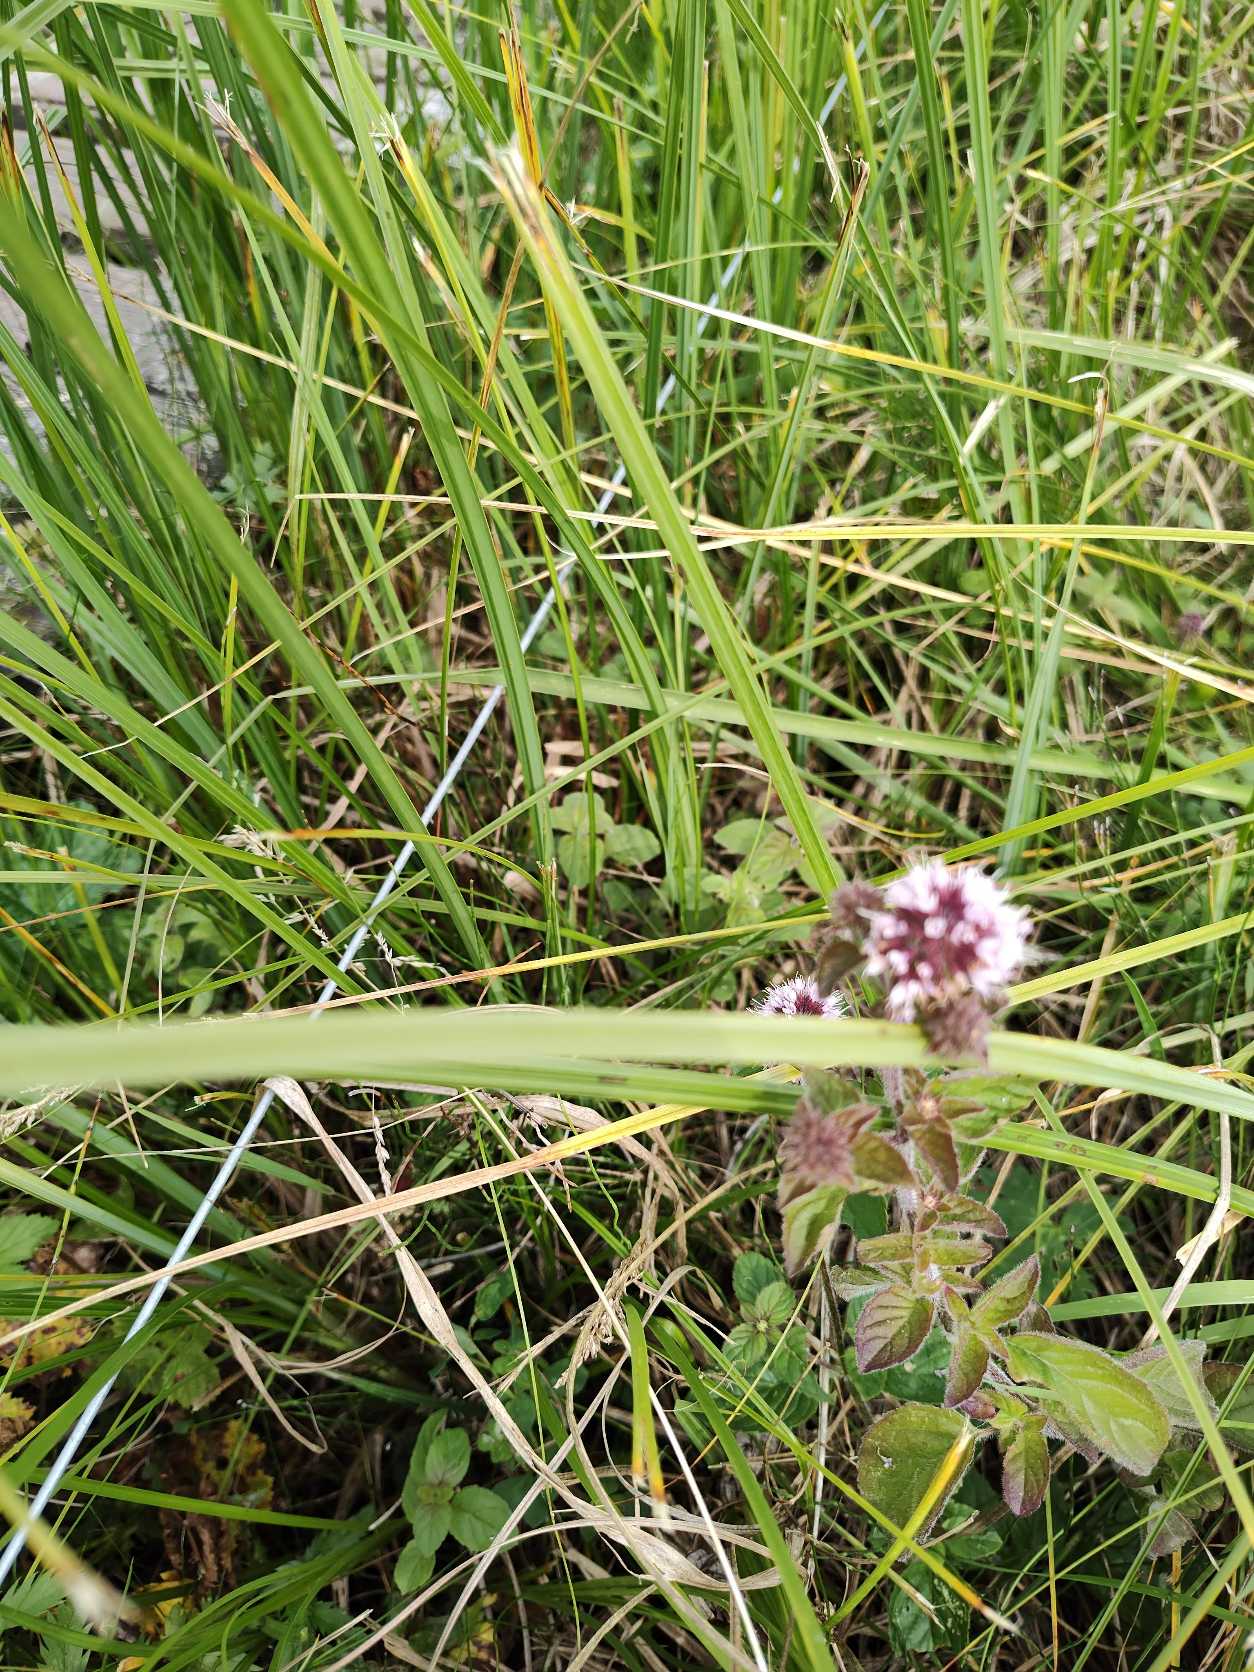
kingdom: Plantae
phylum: Tracheophyta
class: Magnoliopsida
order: Lamiales
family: Lamiaceae
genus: Mentha
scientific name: Mentha aquatica
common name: Vand-mynte
